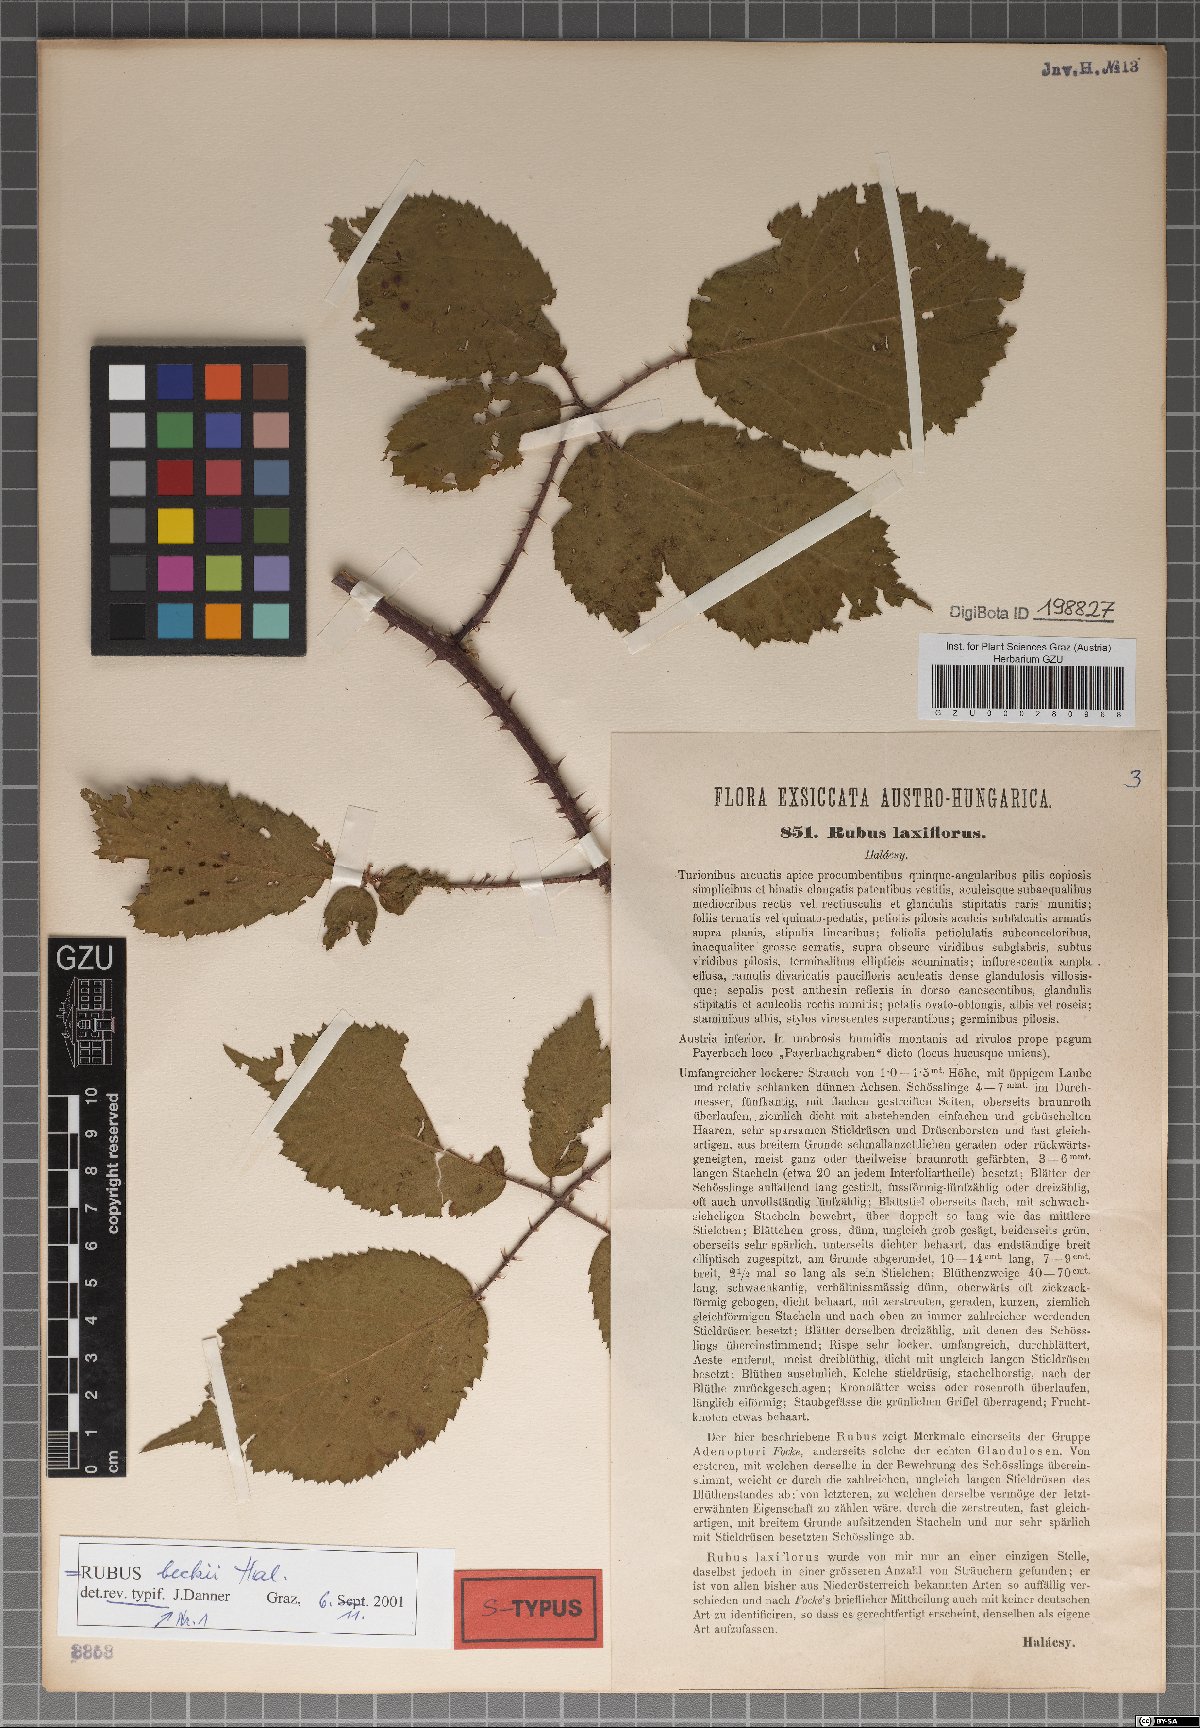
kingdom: Plantae
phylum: Tracheophyta
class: Magnoliopsida
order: Rosales
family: Rosaceae
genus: Rubus
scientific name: Rubus laxiflorus
